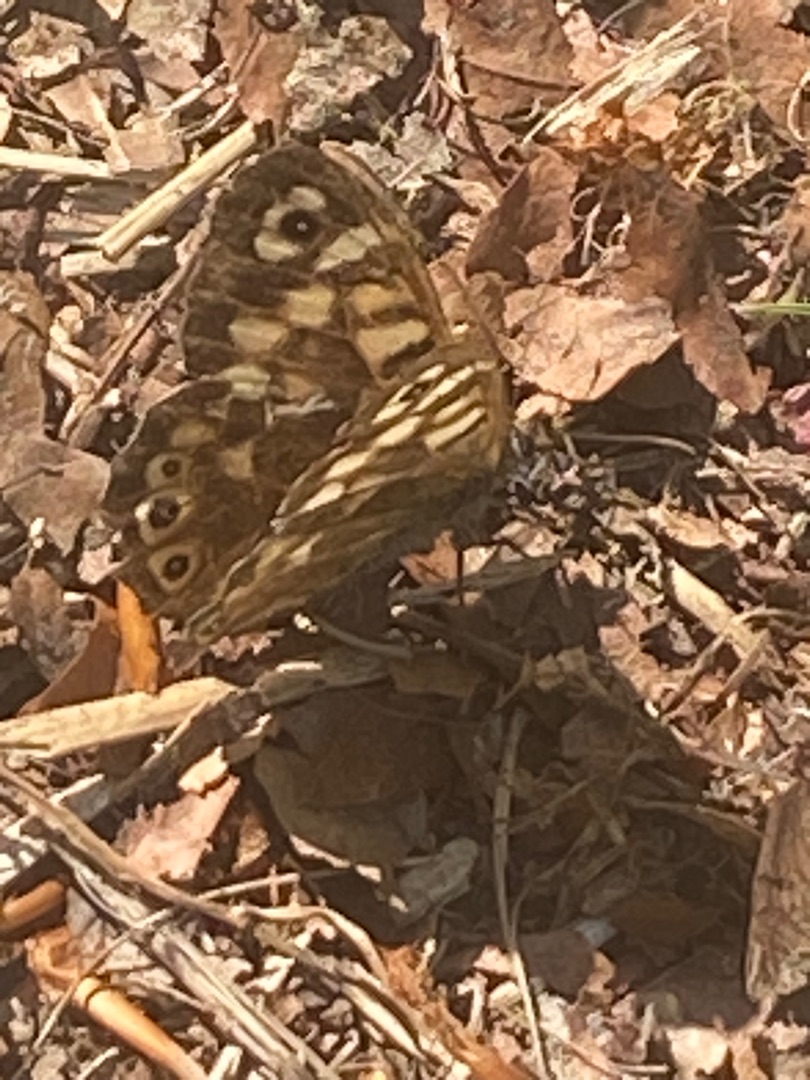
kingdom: Animalia
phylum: Arthropoda
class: Insecta
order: Lepidoptera
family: Nymphalidae
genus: Pararge
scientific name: Pararge aegeria
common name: Skovrandøje
